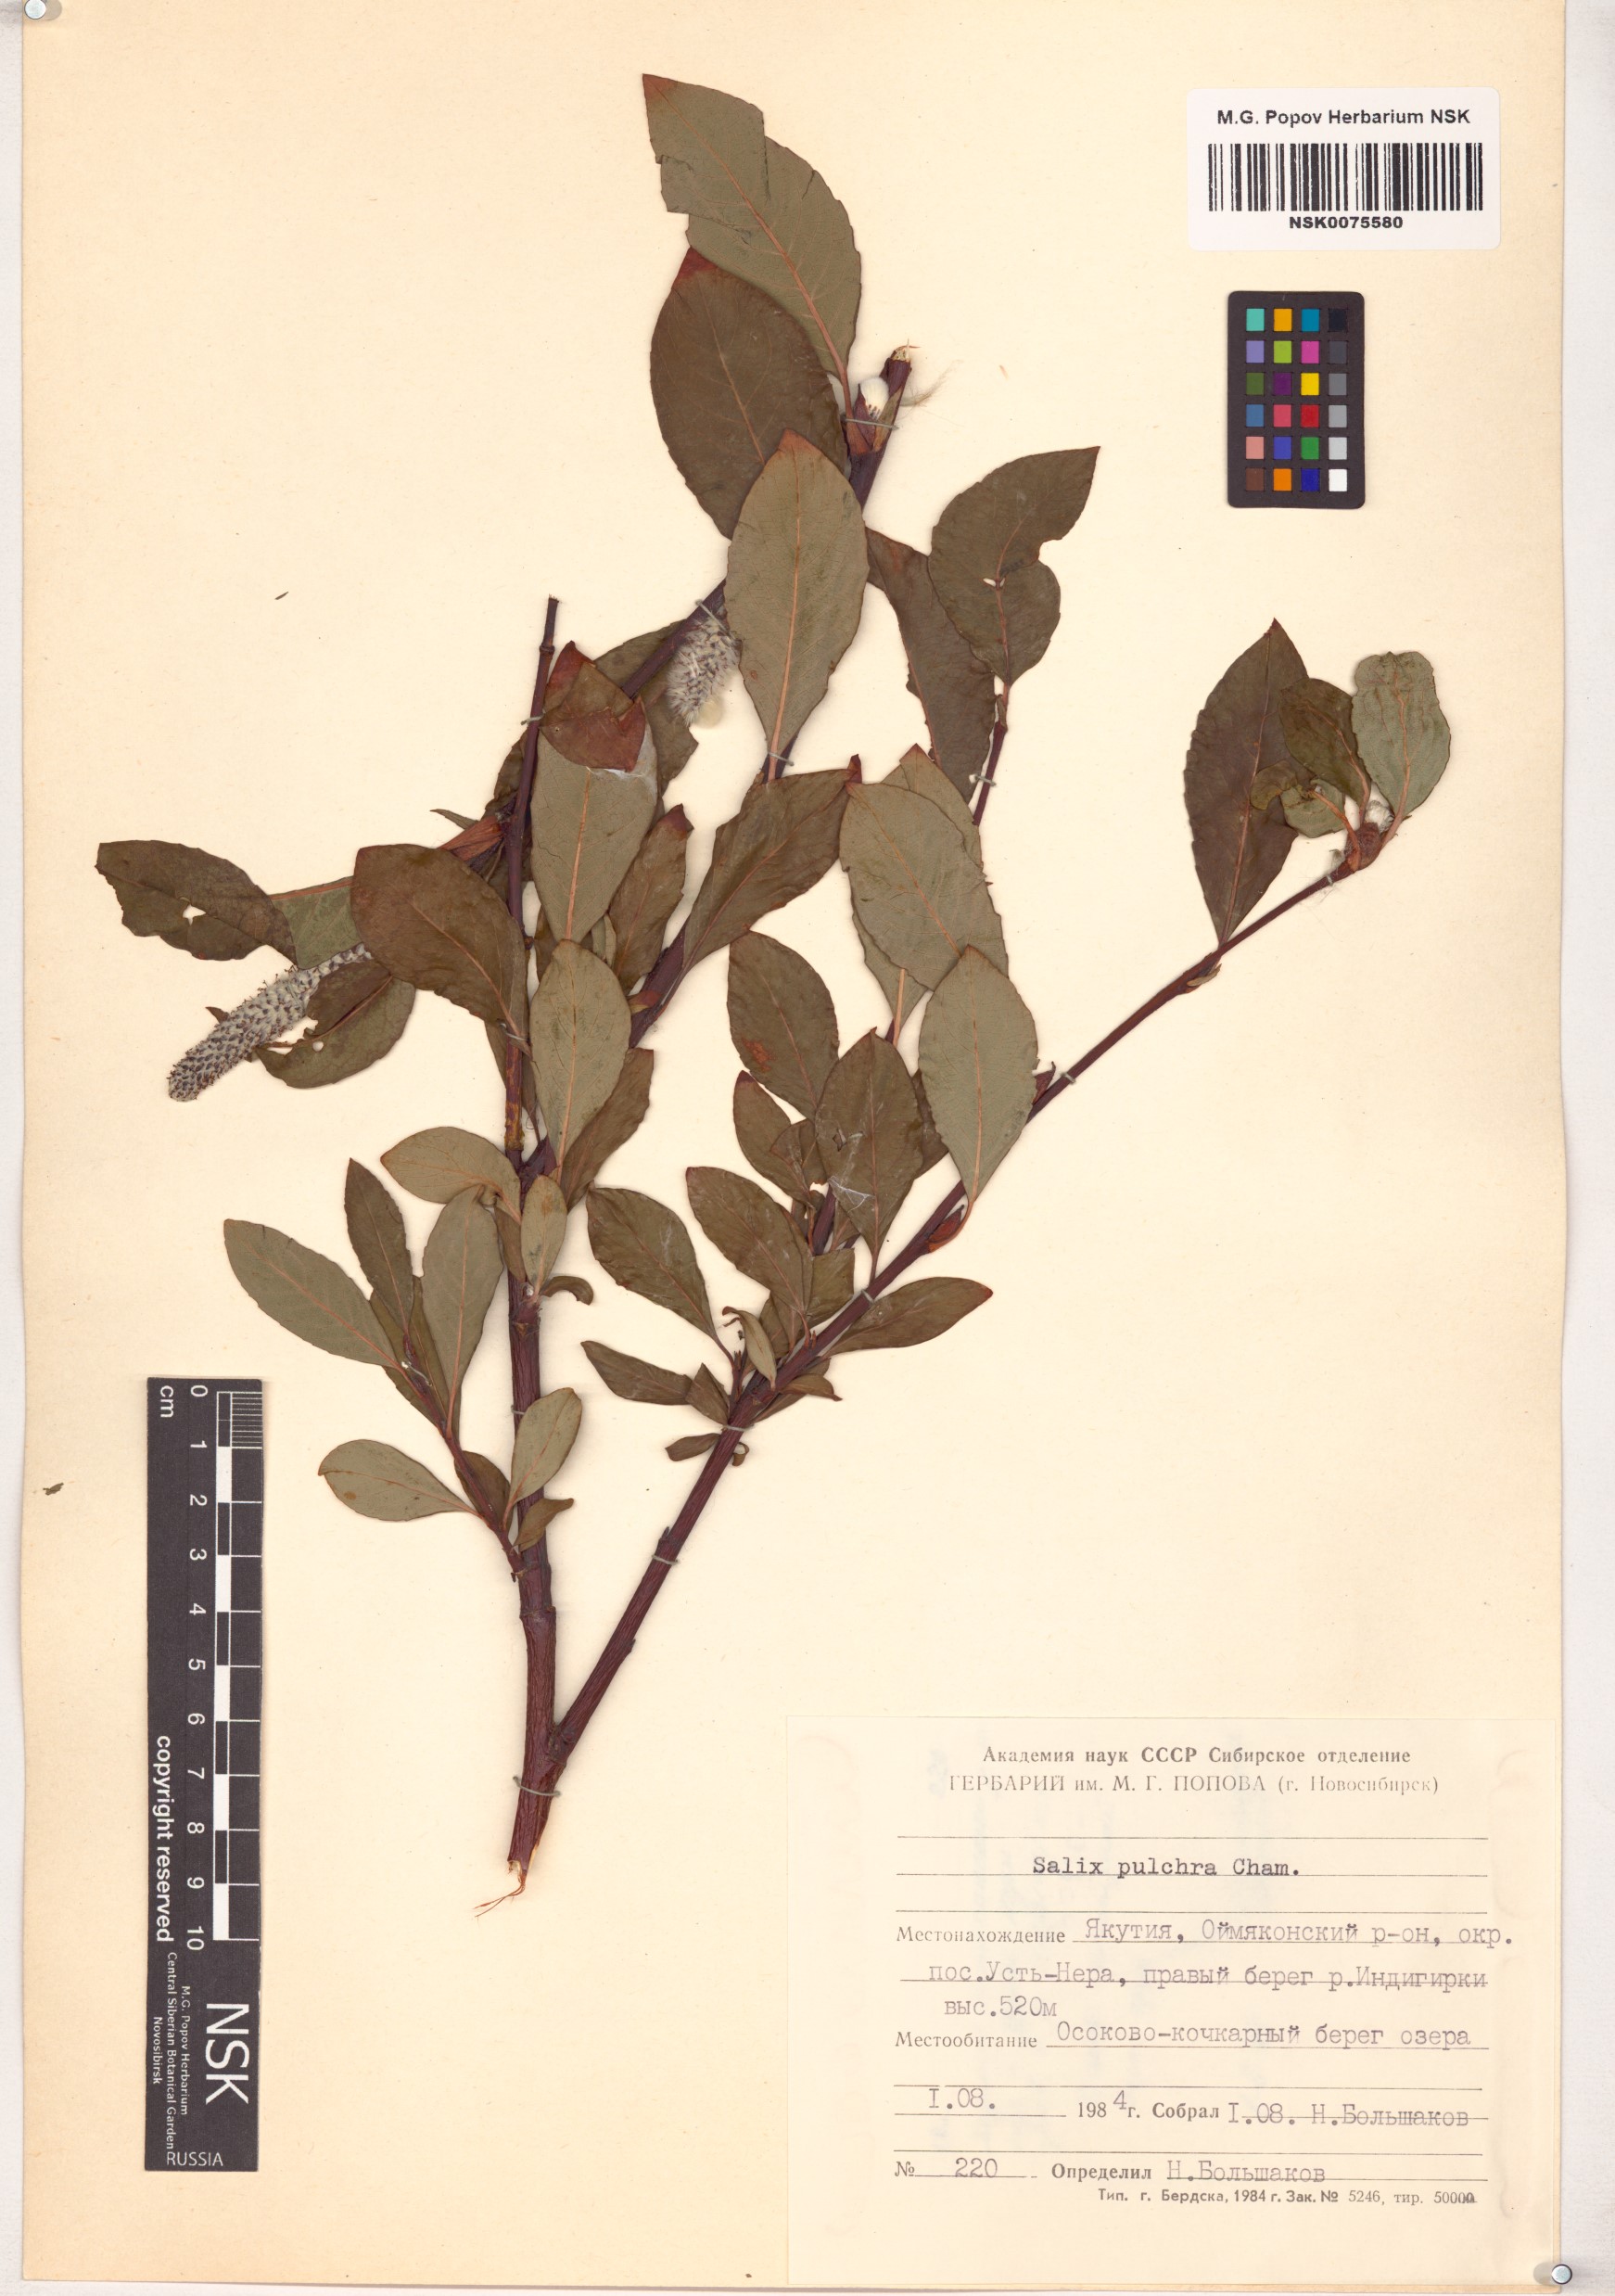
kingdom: Plantae
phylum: Tracheophyta
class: Magnoliopsida
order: Malpighiales
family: Salicaceae
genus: Salix
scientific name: Salix pulchra
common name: Diamond-leaved willow
